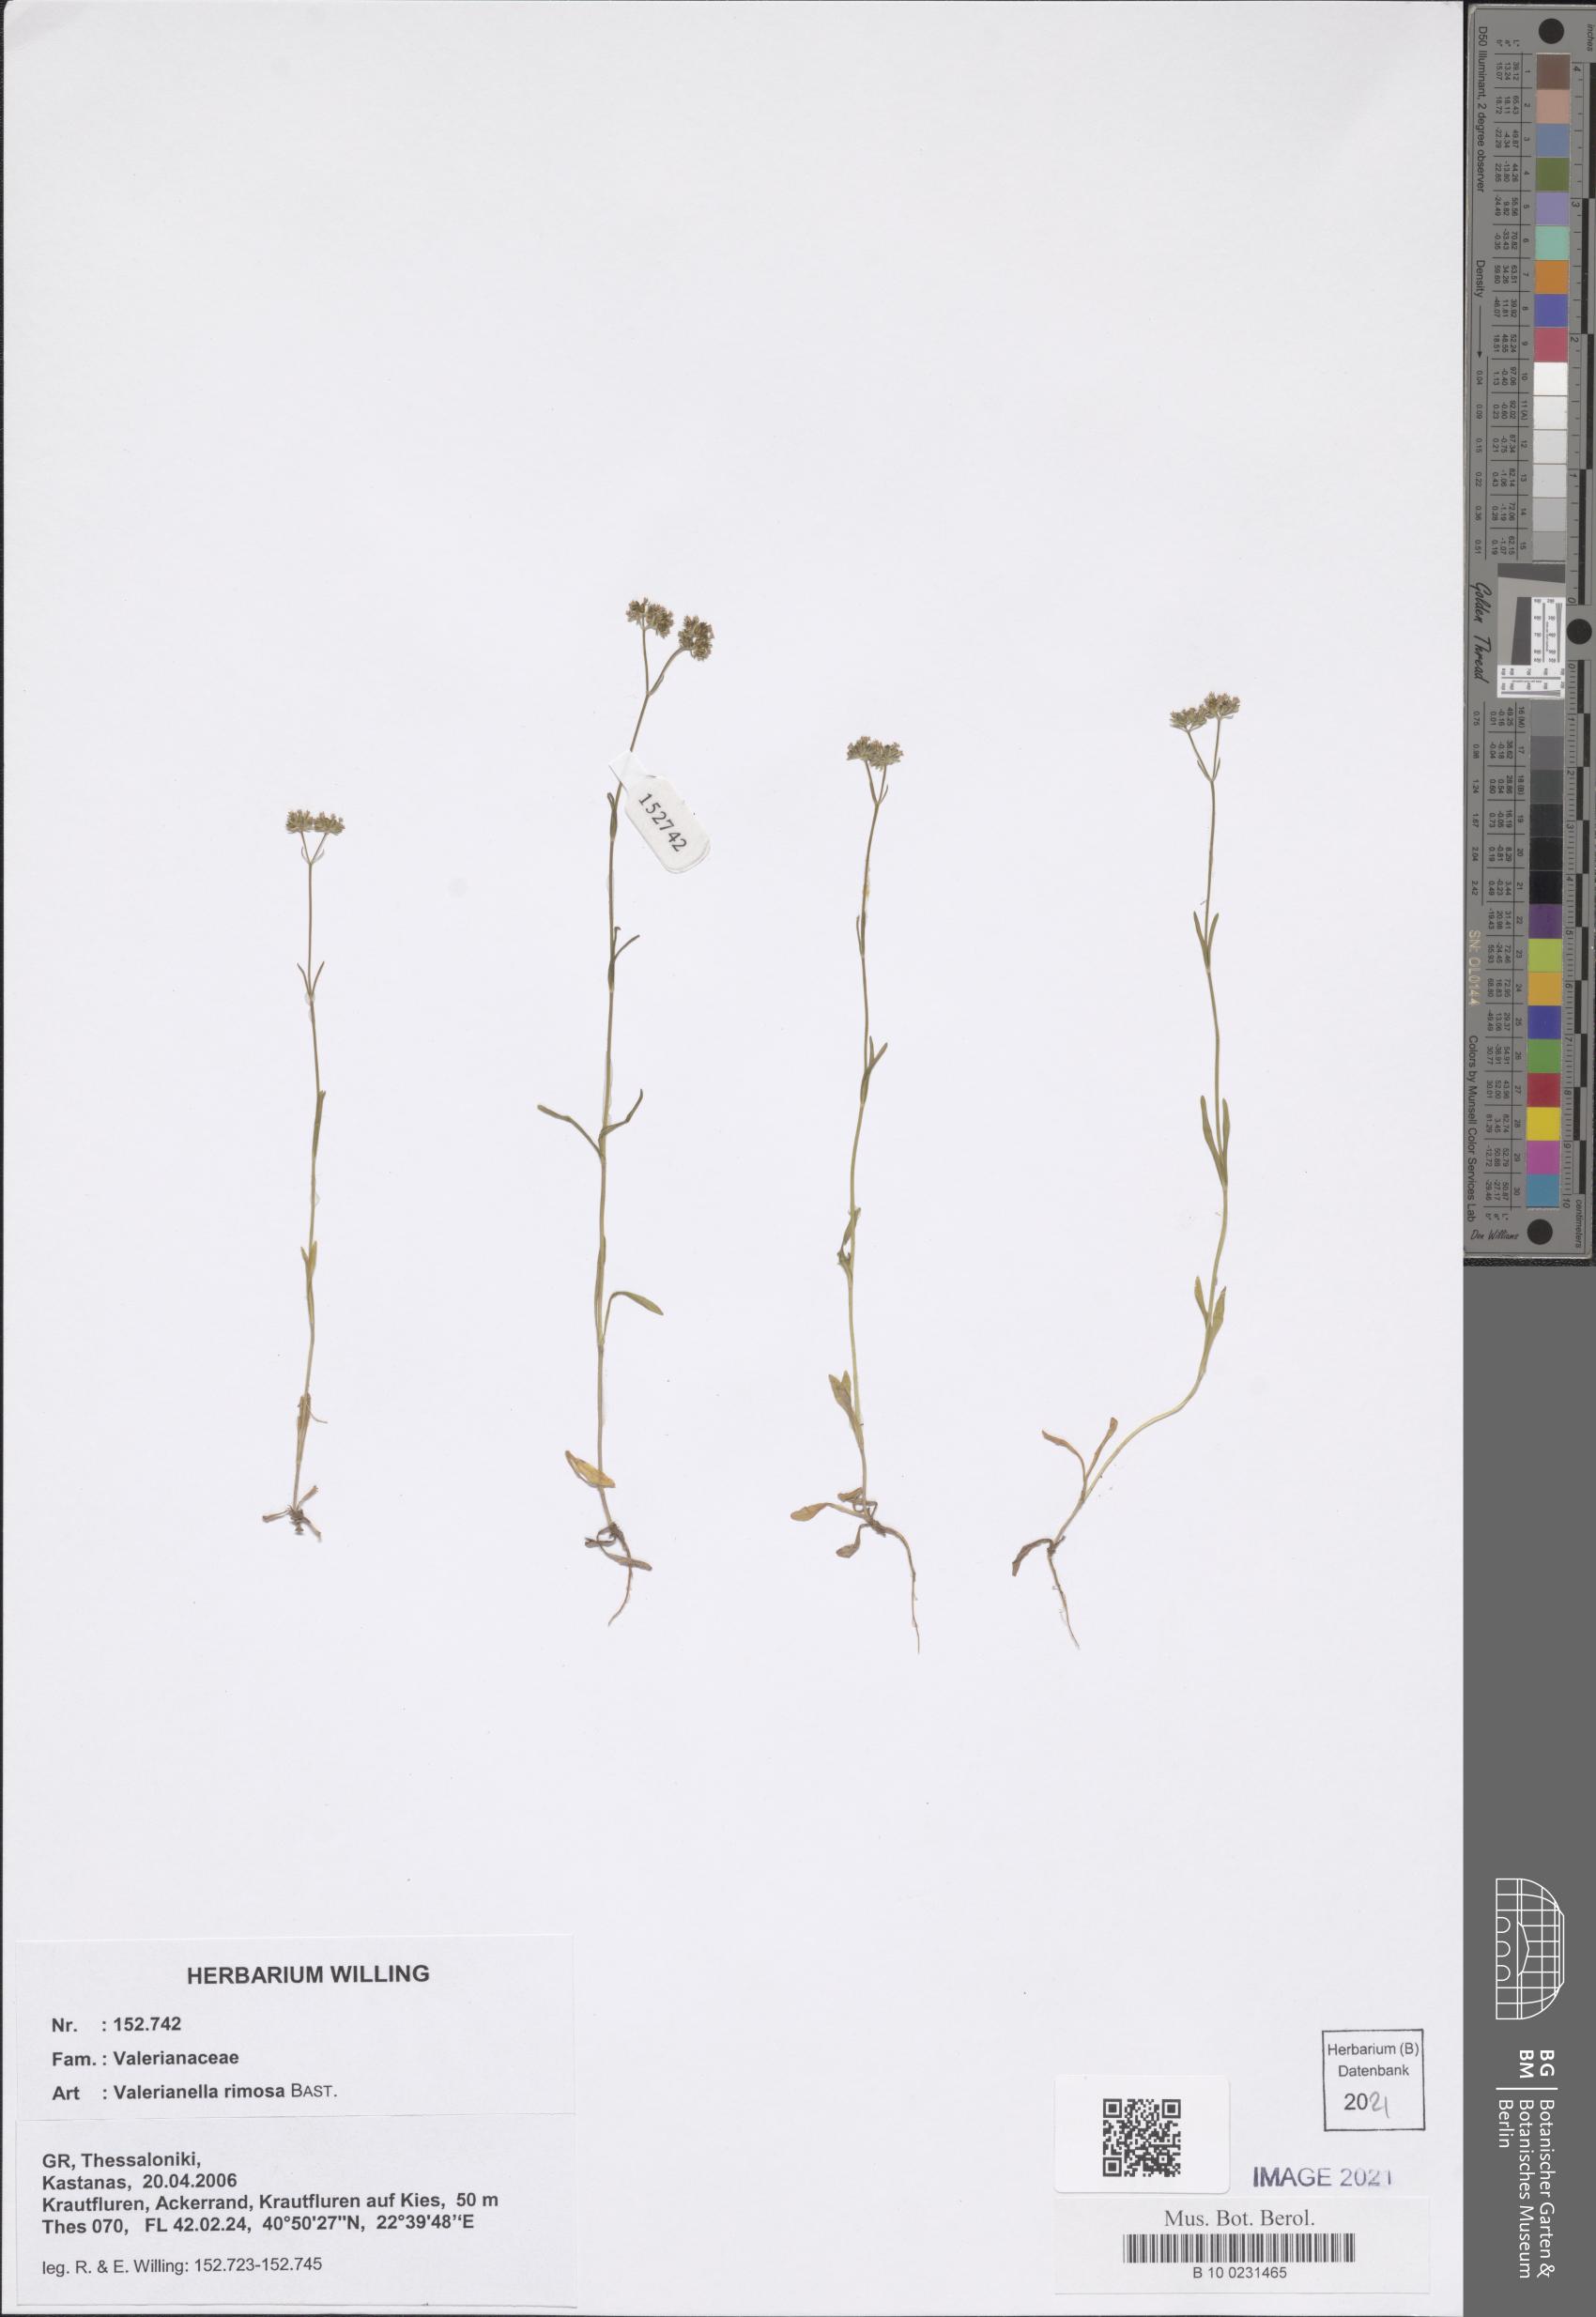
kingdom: Plantae
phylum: Tracheophyta
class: Magnoliopsida
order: Dipsacales
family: Caprifoliaceae
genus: Valerianella
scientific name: Valerianella rimosa
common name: Broad-fruited cornsalad
